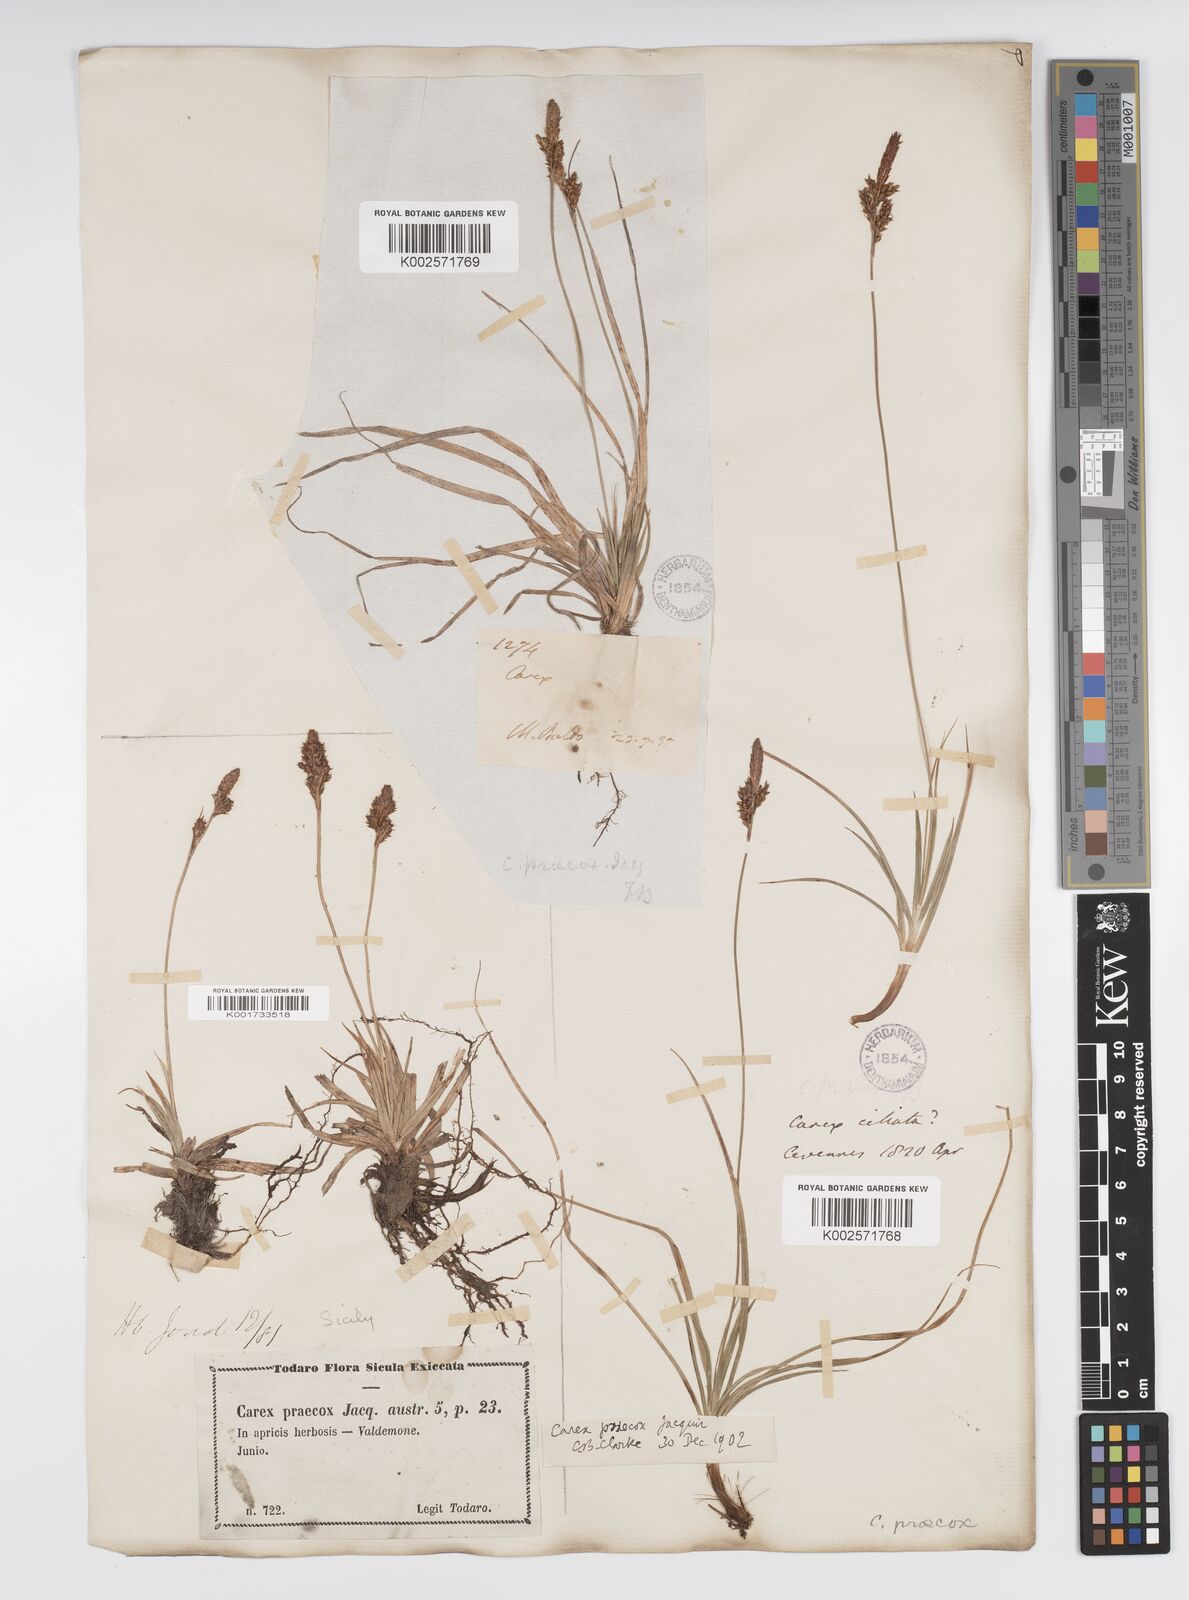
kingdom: Plantae
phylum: Tracheophyta
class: Liliopsida
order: Poales
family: Cyperaceae
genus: Carex
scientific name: Carex caryophyllea
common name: Spring sedge
